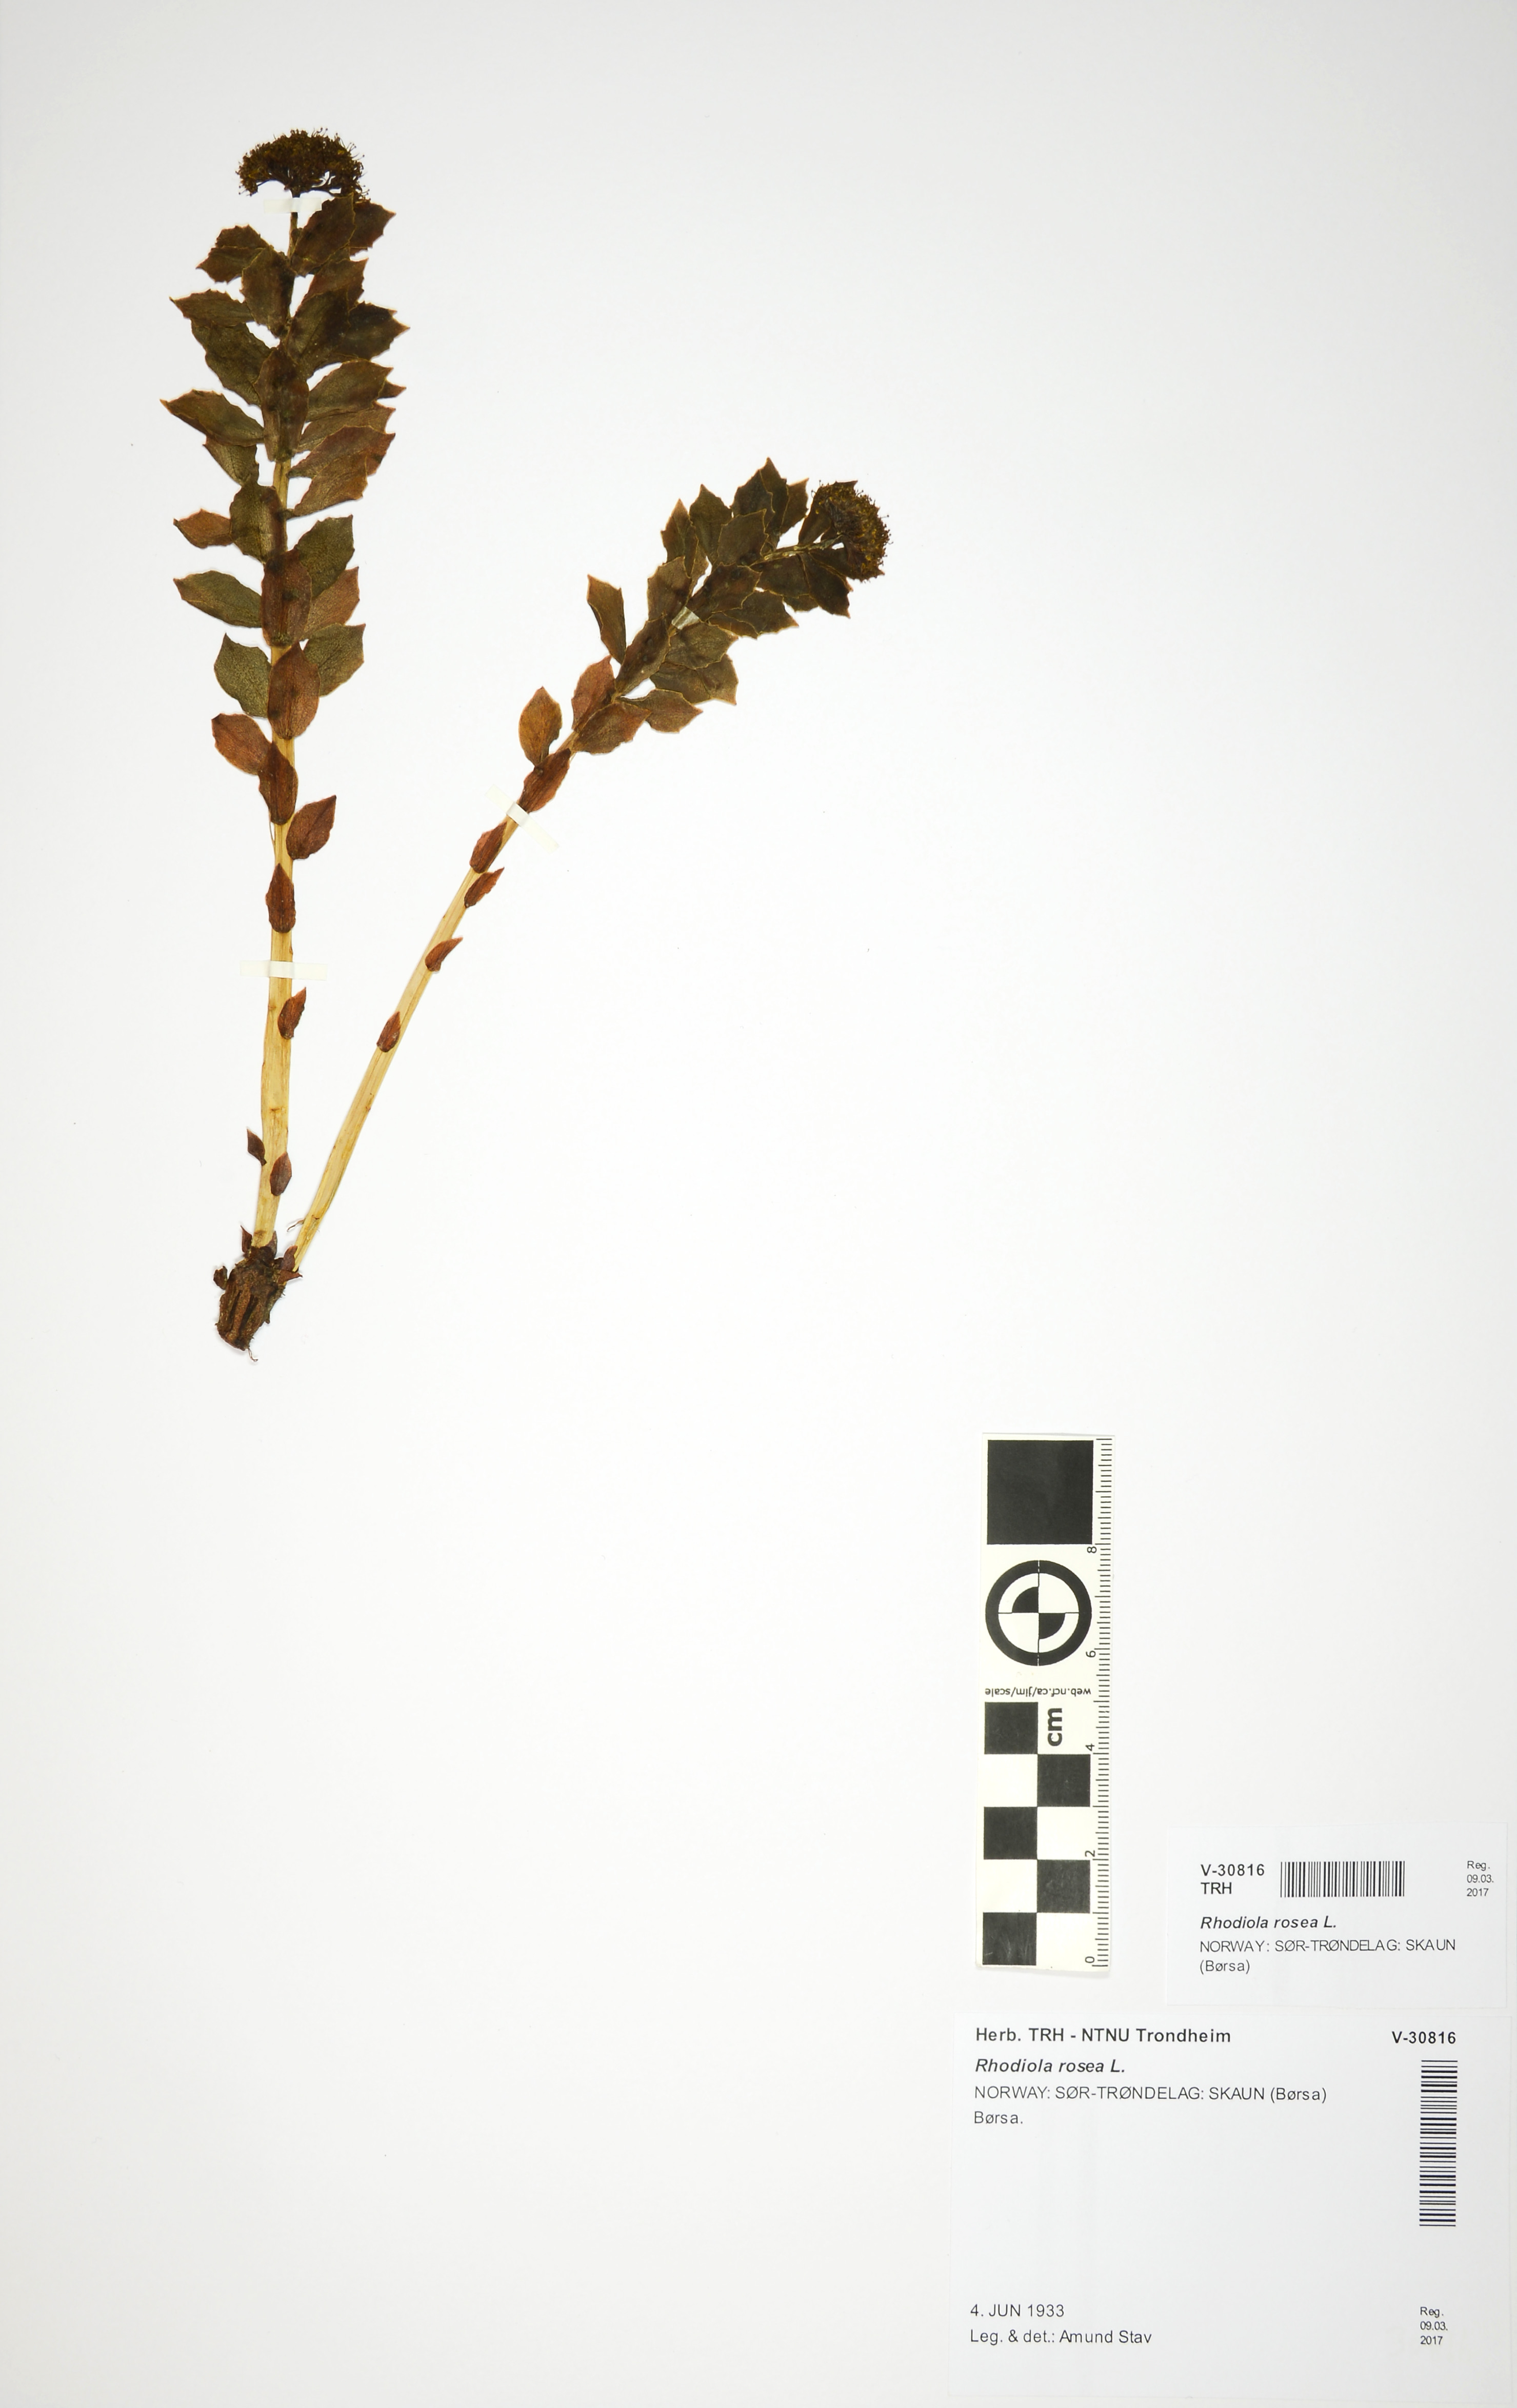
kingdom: Plantae
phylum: Tracheophyta
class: Magnoliopsida
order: Saxifragales
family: Crassulaceae
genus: Rhodiola
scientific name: Rhodiola rosea
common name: Roseroot
